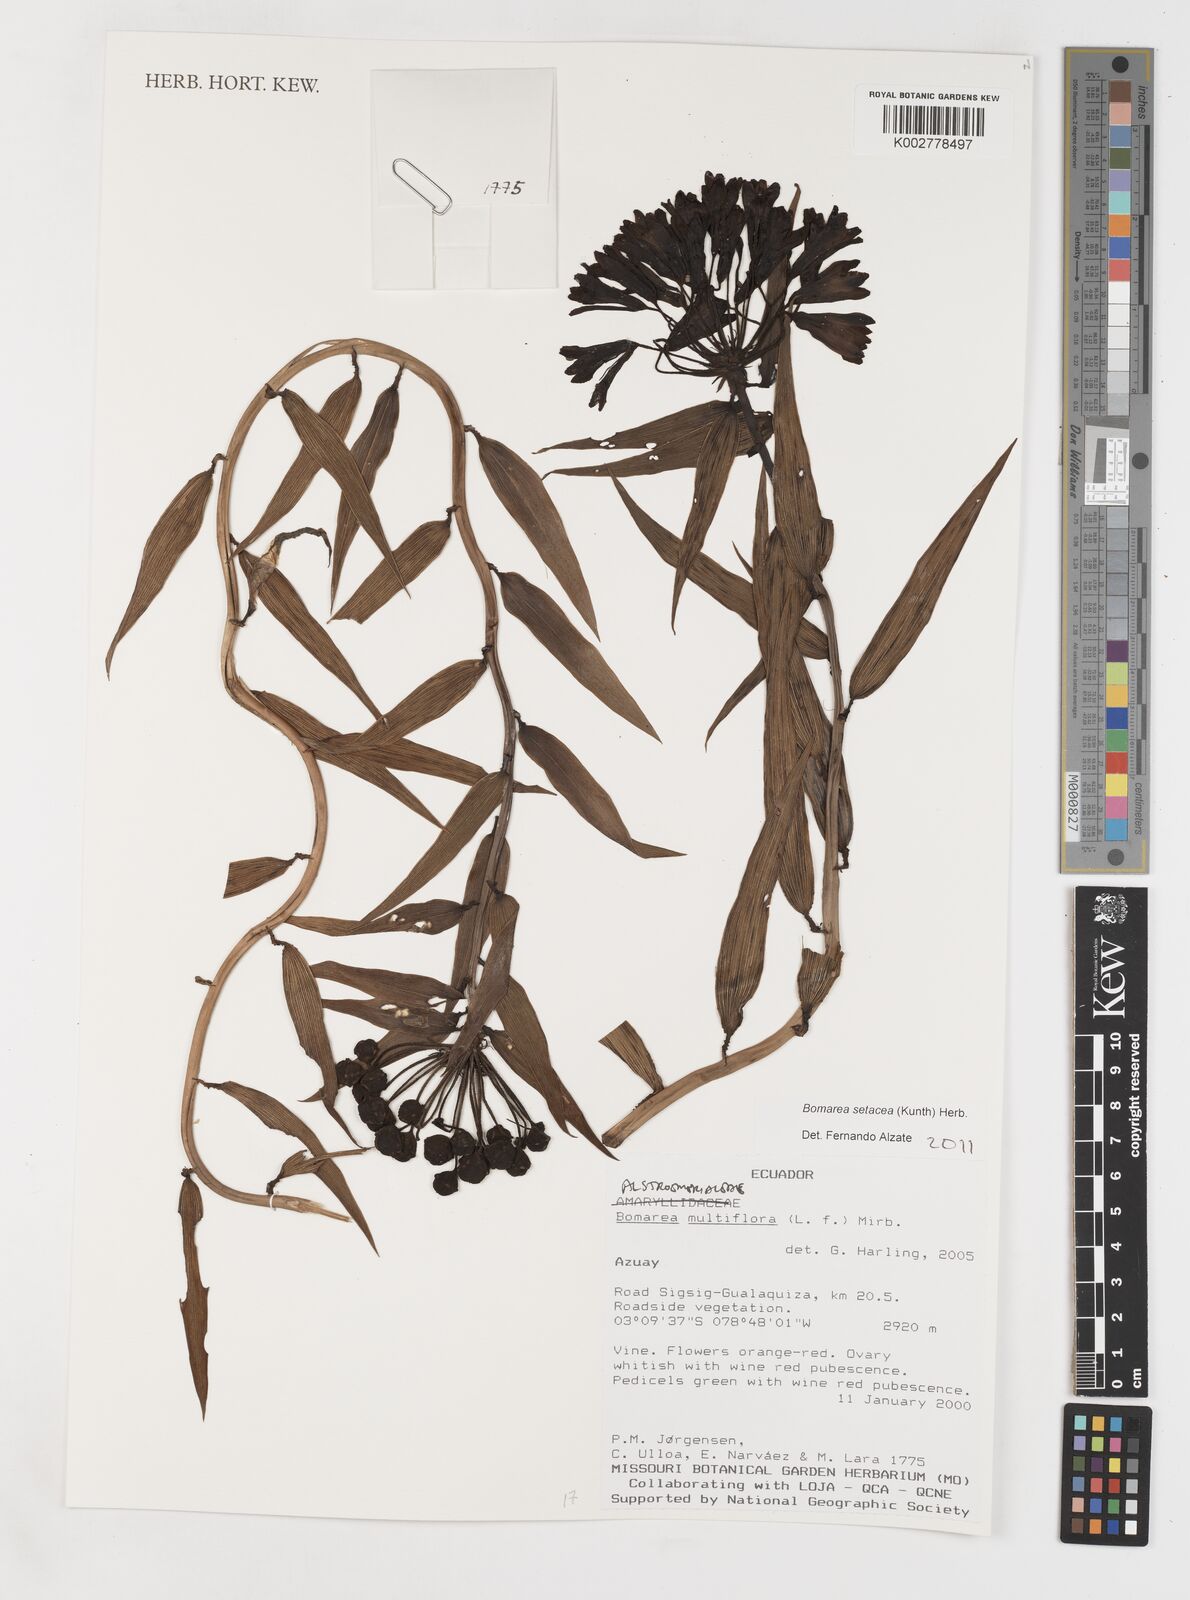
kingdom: Plantae
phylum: Tracheophyta
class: Liliopsida
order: Liliales
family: Alstroemeriaceae
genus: Bomarea
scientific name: Bomarea setacea
